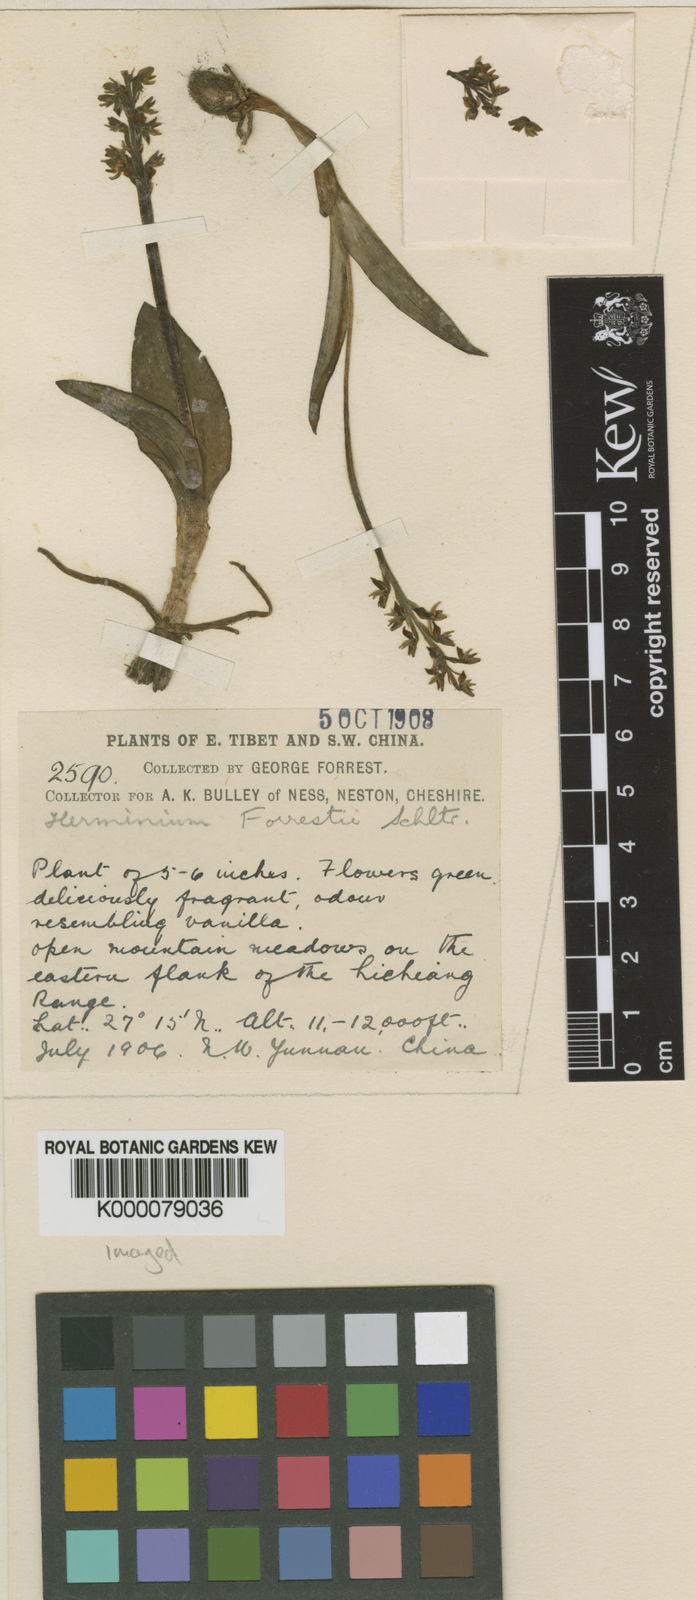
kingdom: Plantae
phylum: Tracheophyta
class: Liliopsida
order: Asparagales
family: Orchidaceae
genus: Herminium
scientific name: Herminium josephi
